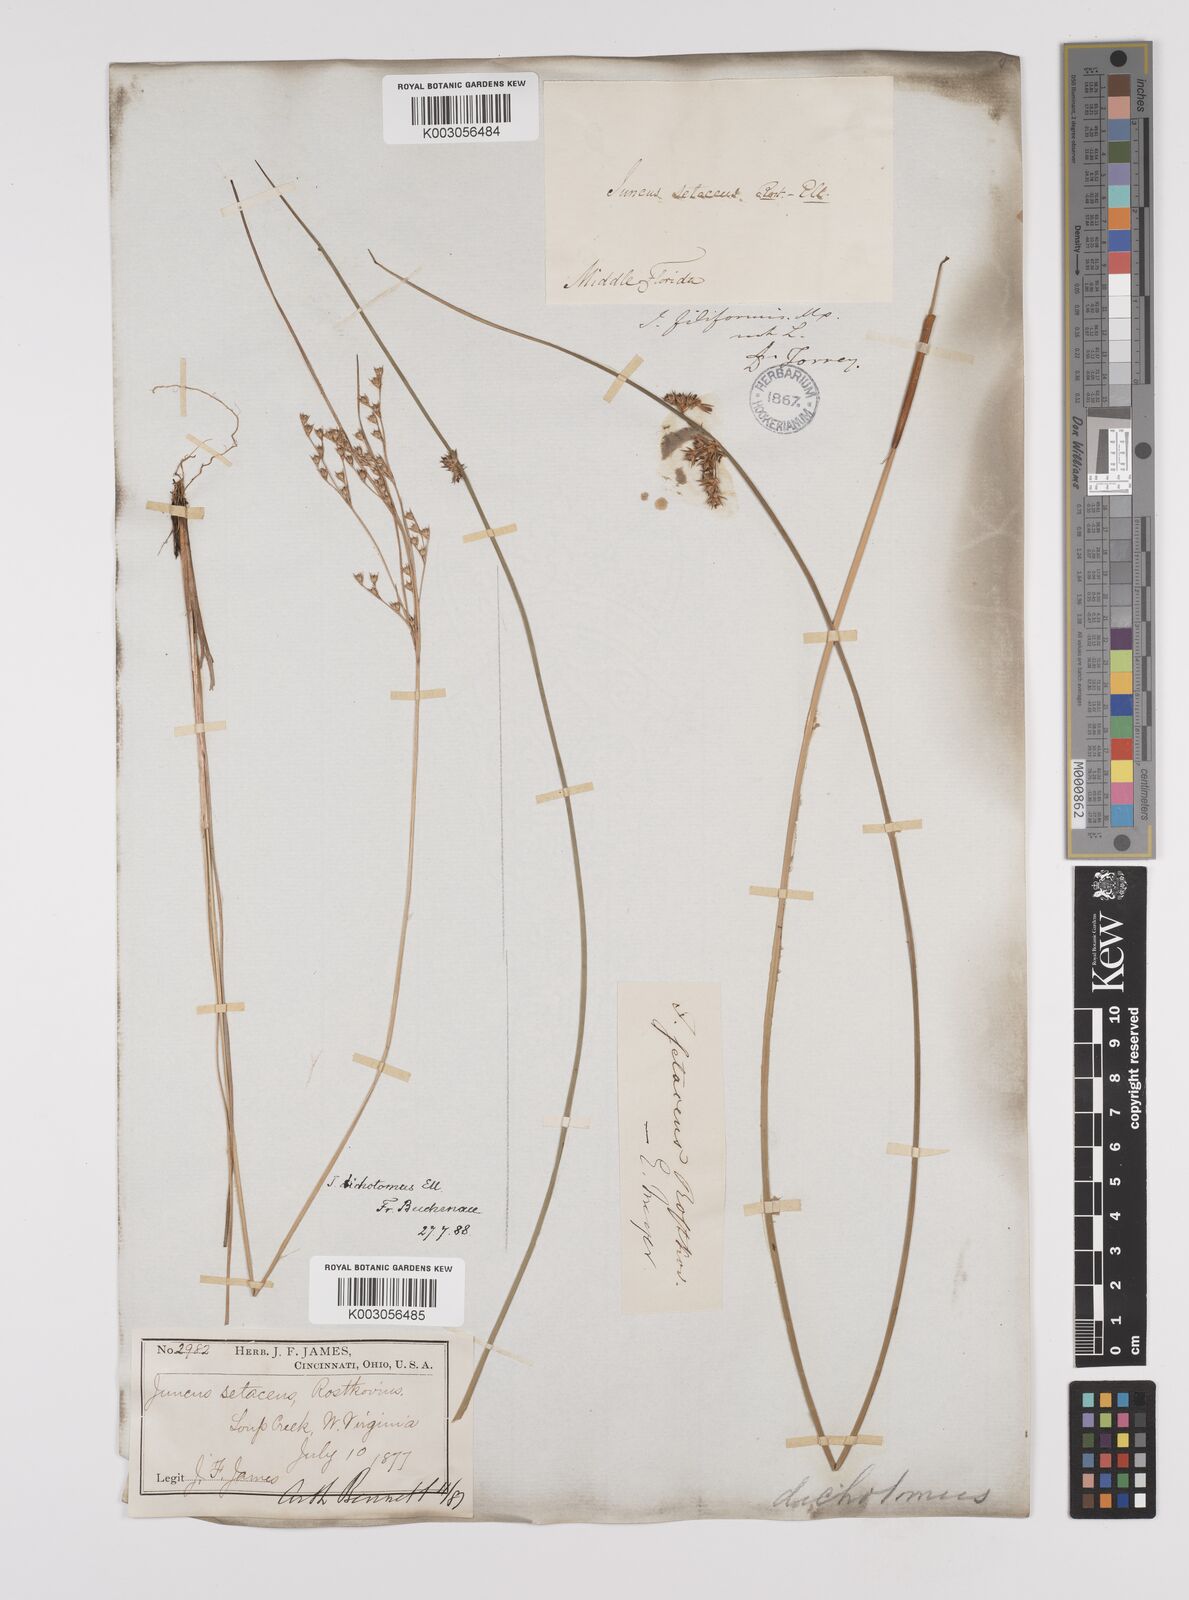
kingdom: Plantae
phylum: Tracheophyta
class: Liliopsida
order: Poales
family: Juncaceae
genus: Juncus
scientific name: Juncus dichotomus
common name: Forked rush
